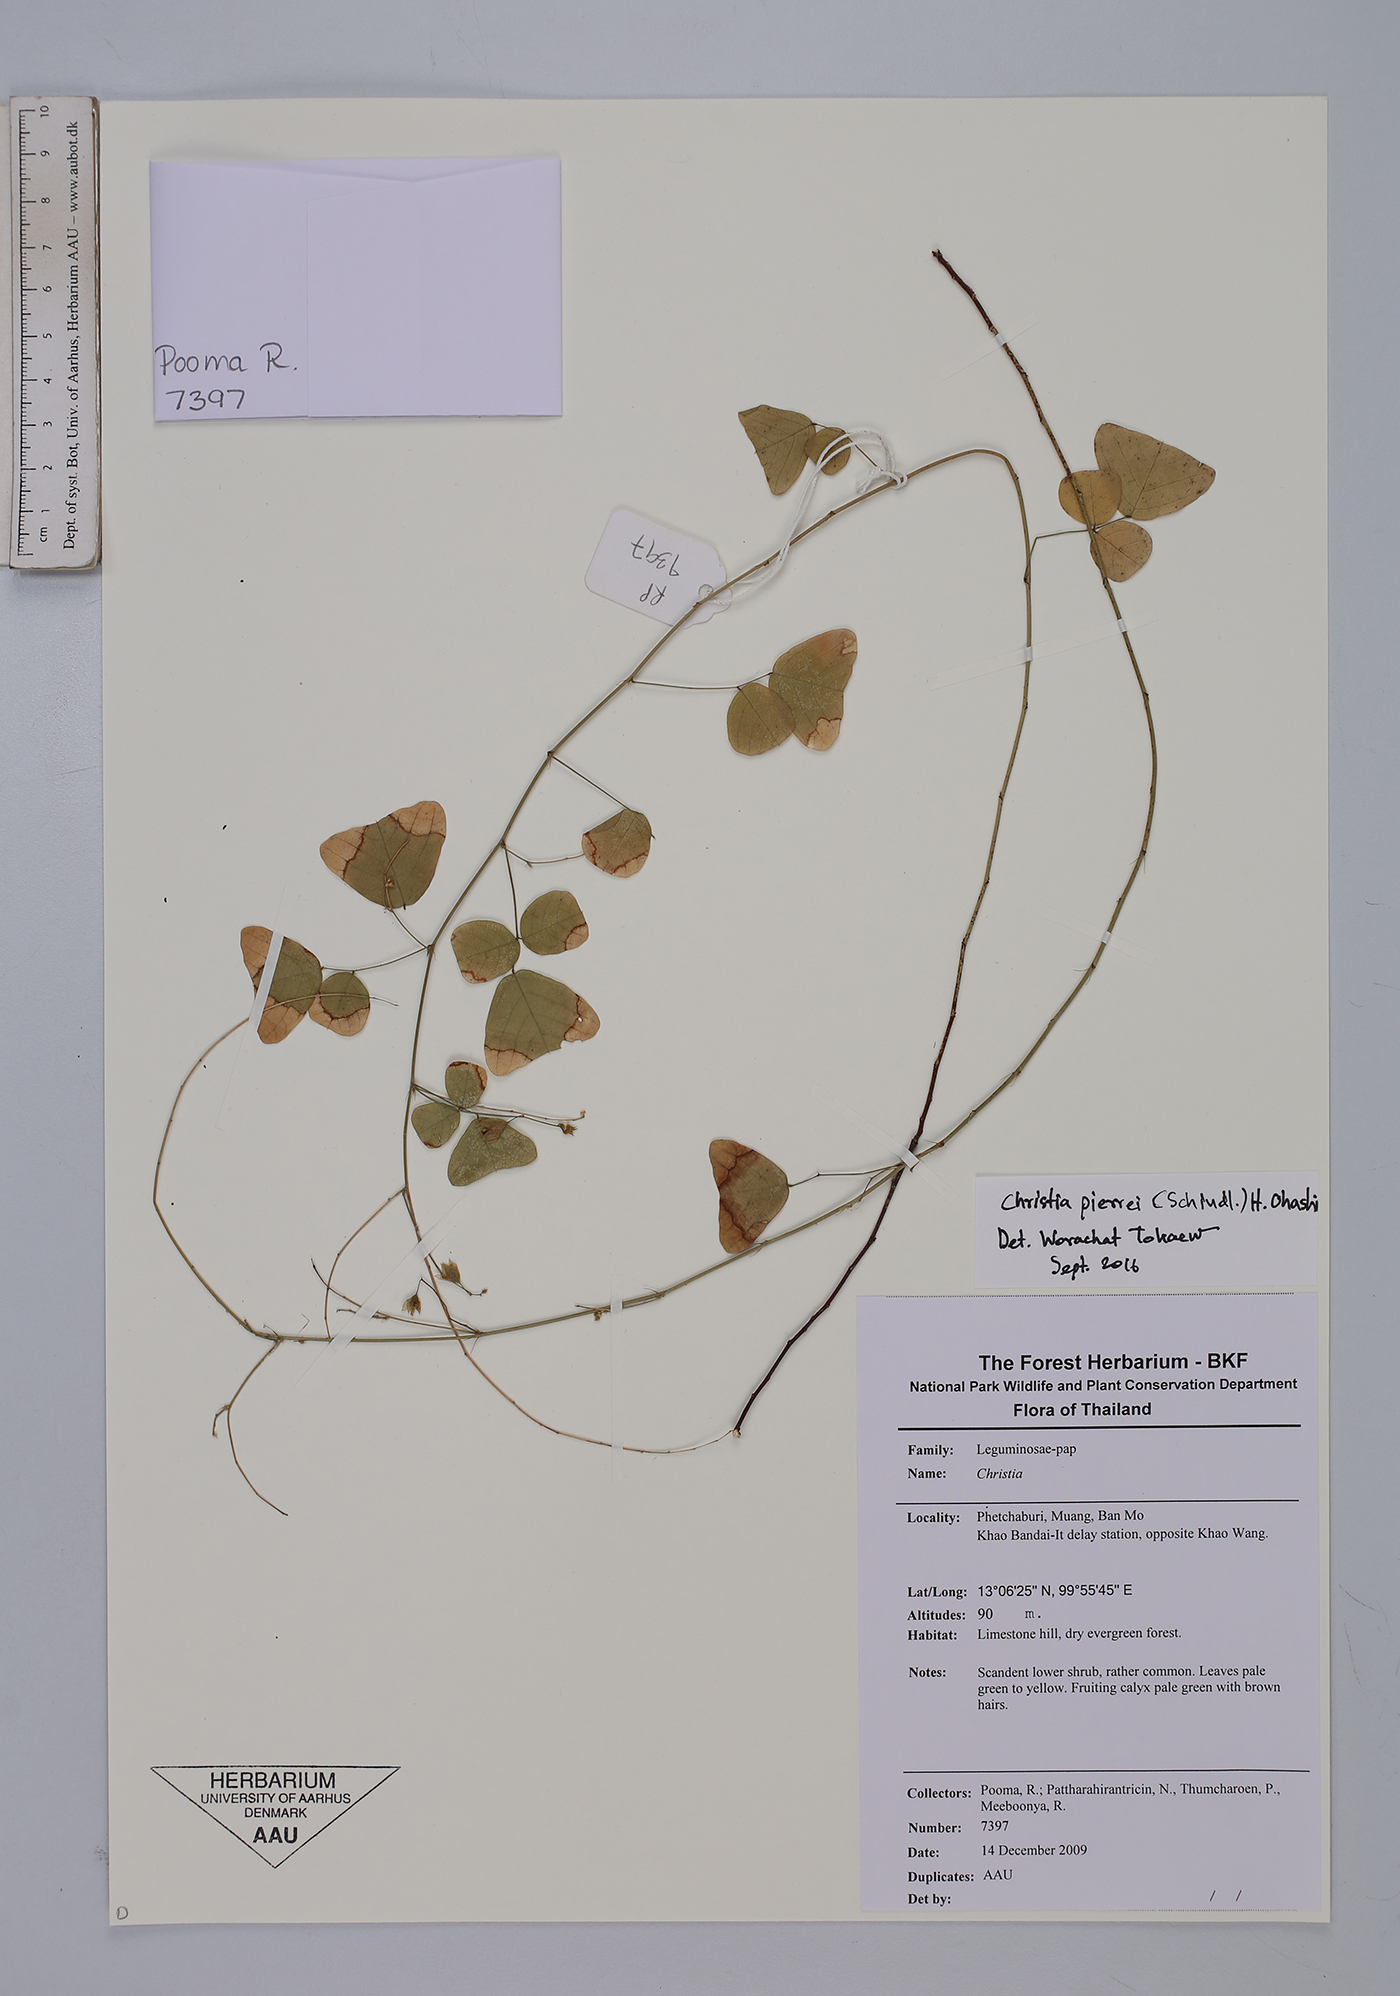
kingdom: Plantae
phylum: Tracheophyta
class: Magnoliopsida
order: Fabales
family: Fabaceae
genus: Christia
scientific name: Christia pierrei
